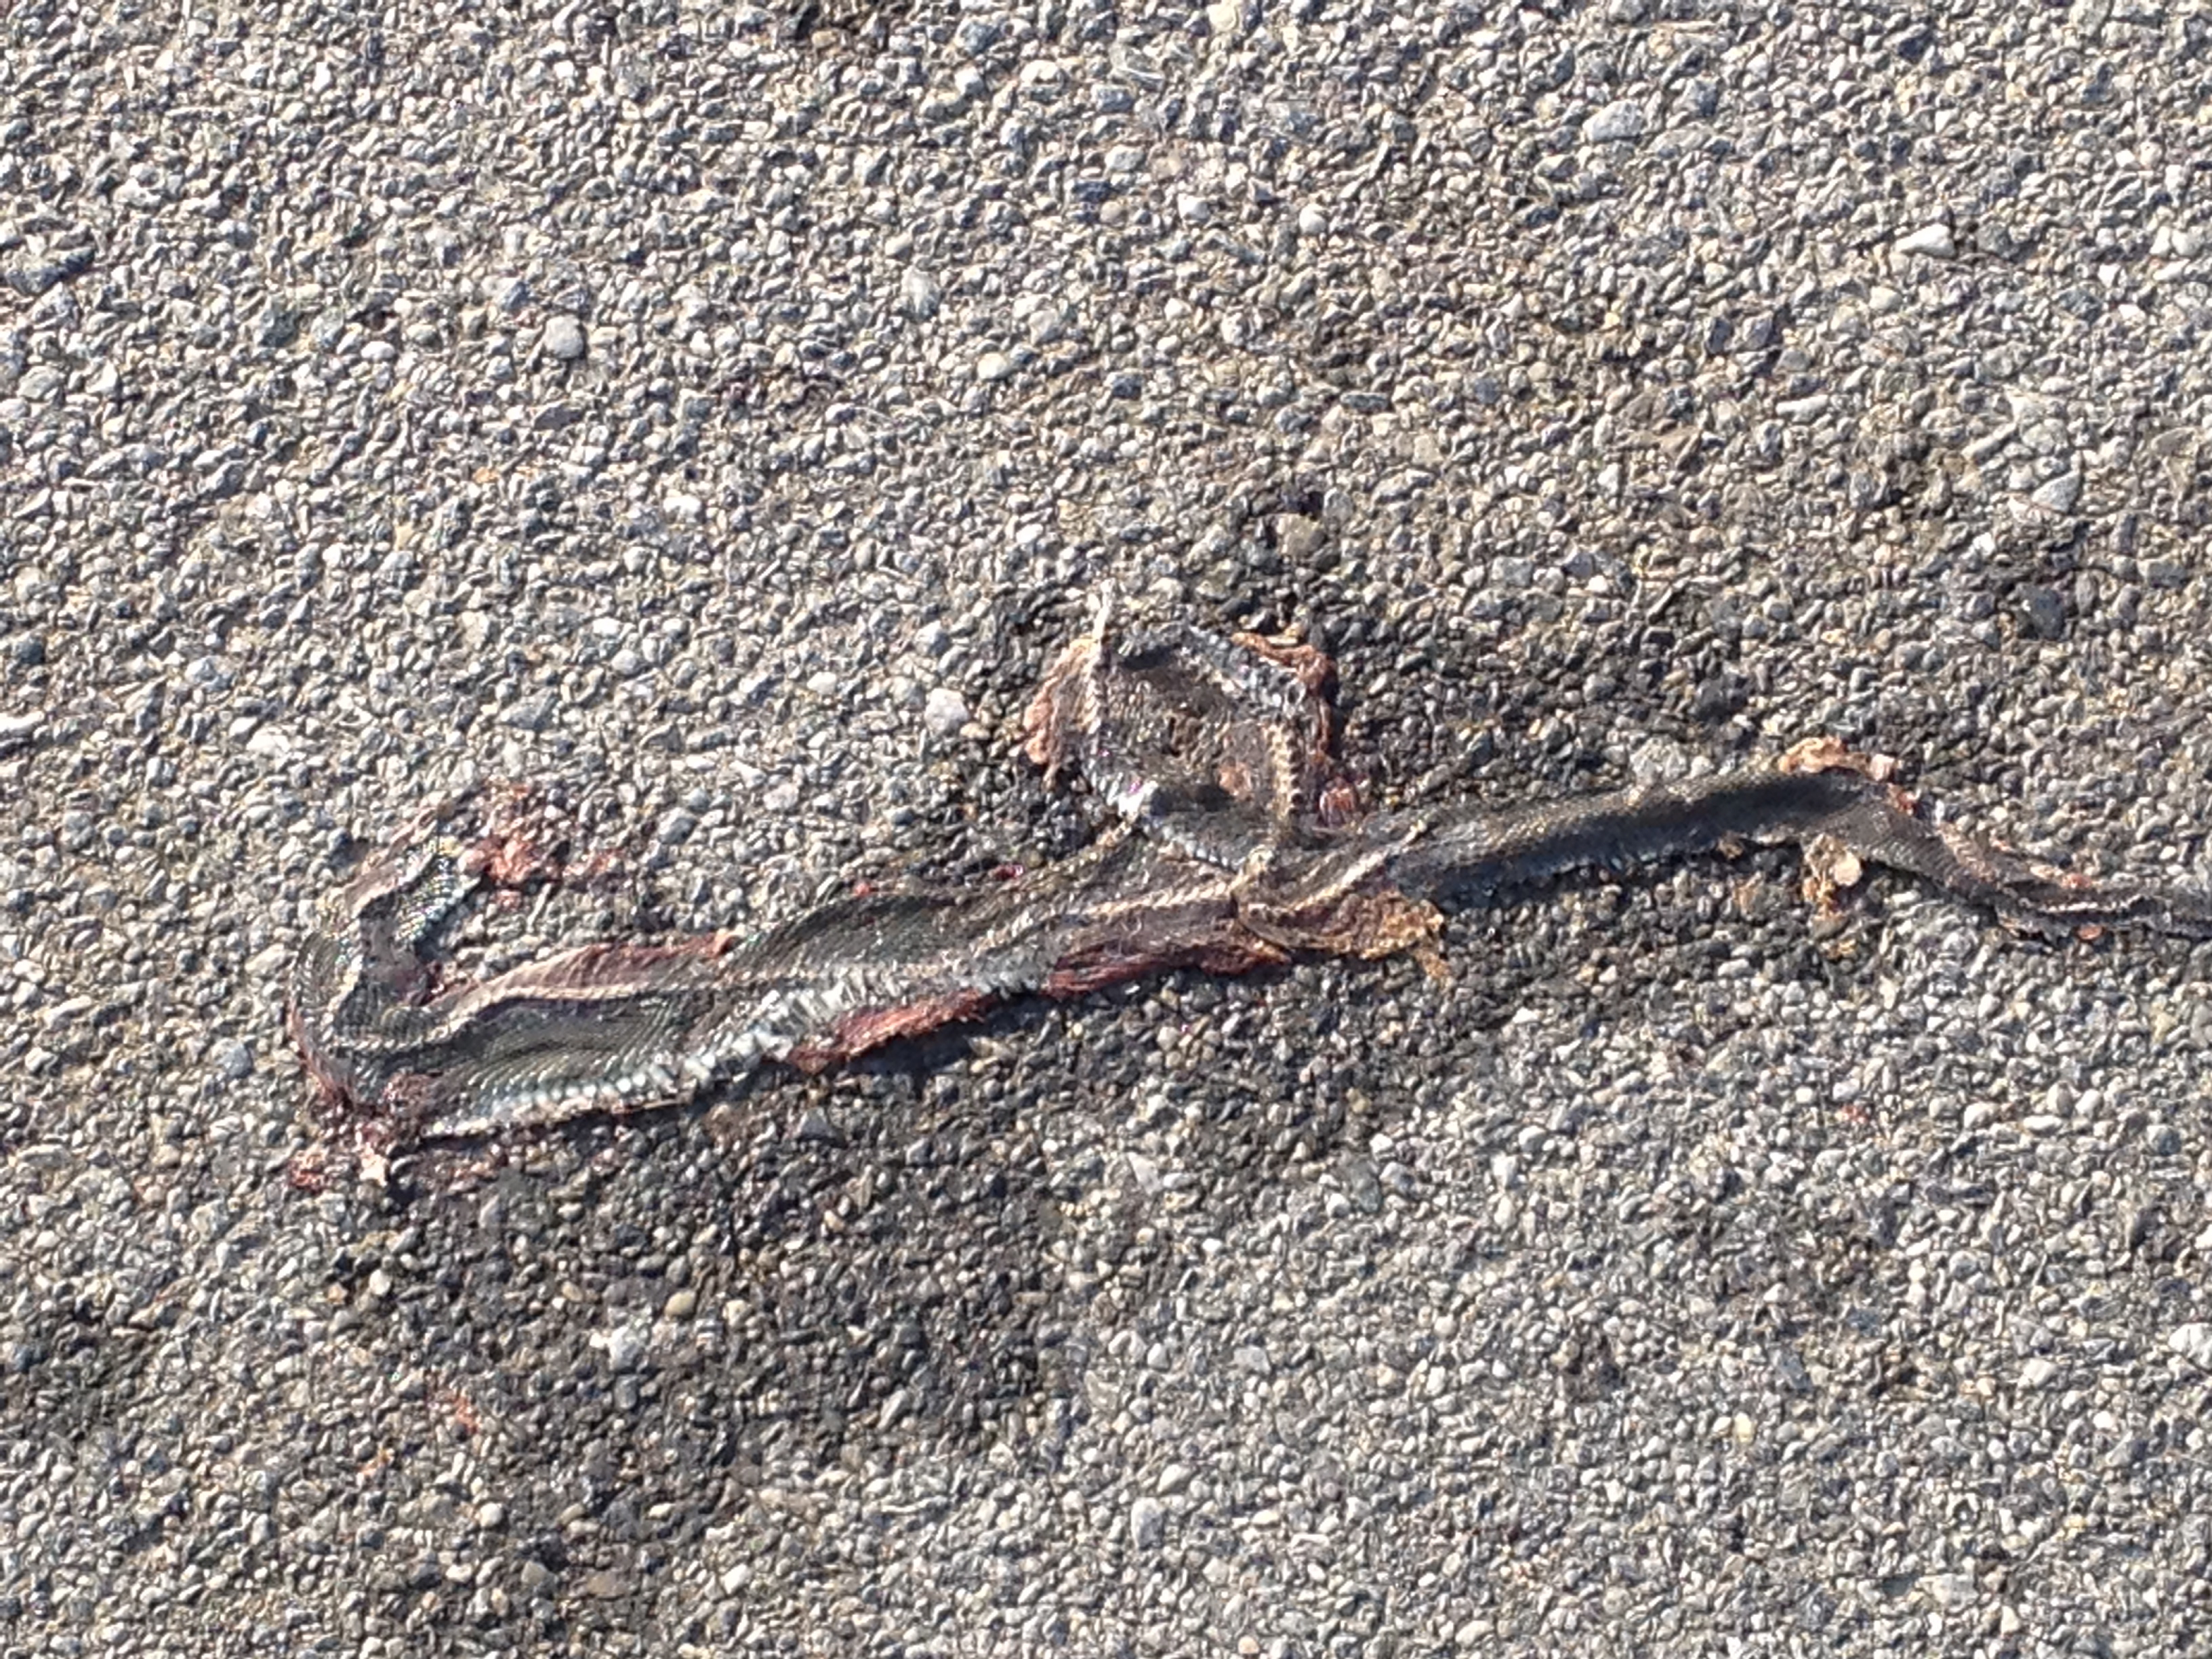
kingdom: Animalia
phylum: Chordata
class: Squamata
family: Colubridae
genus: Natrix
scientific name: Natrix natrix
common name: Grass snake
